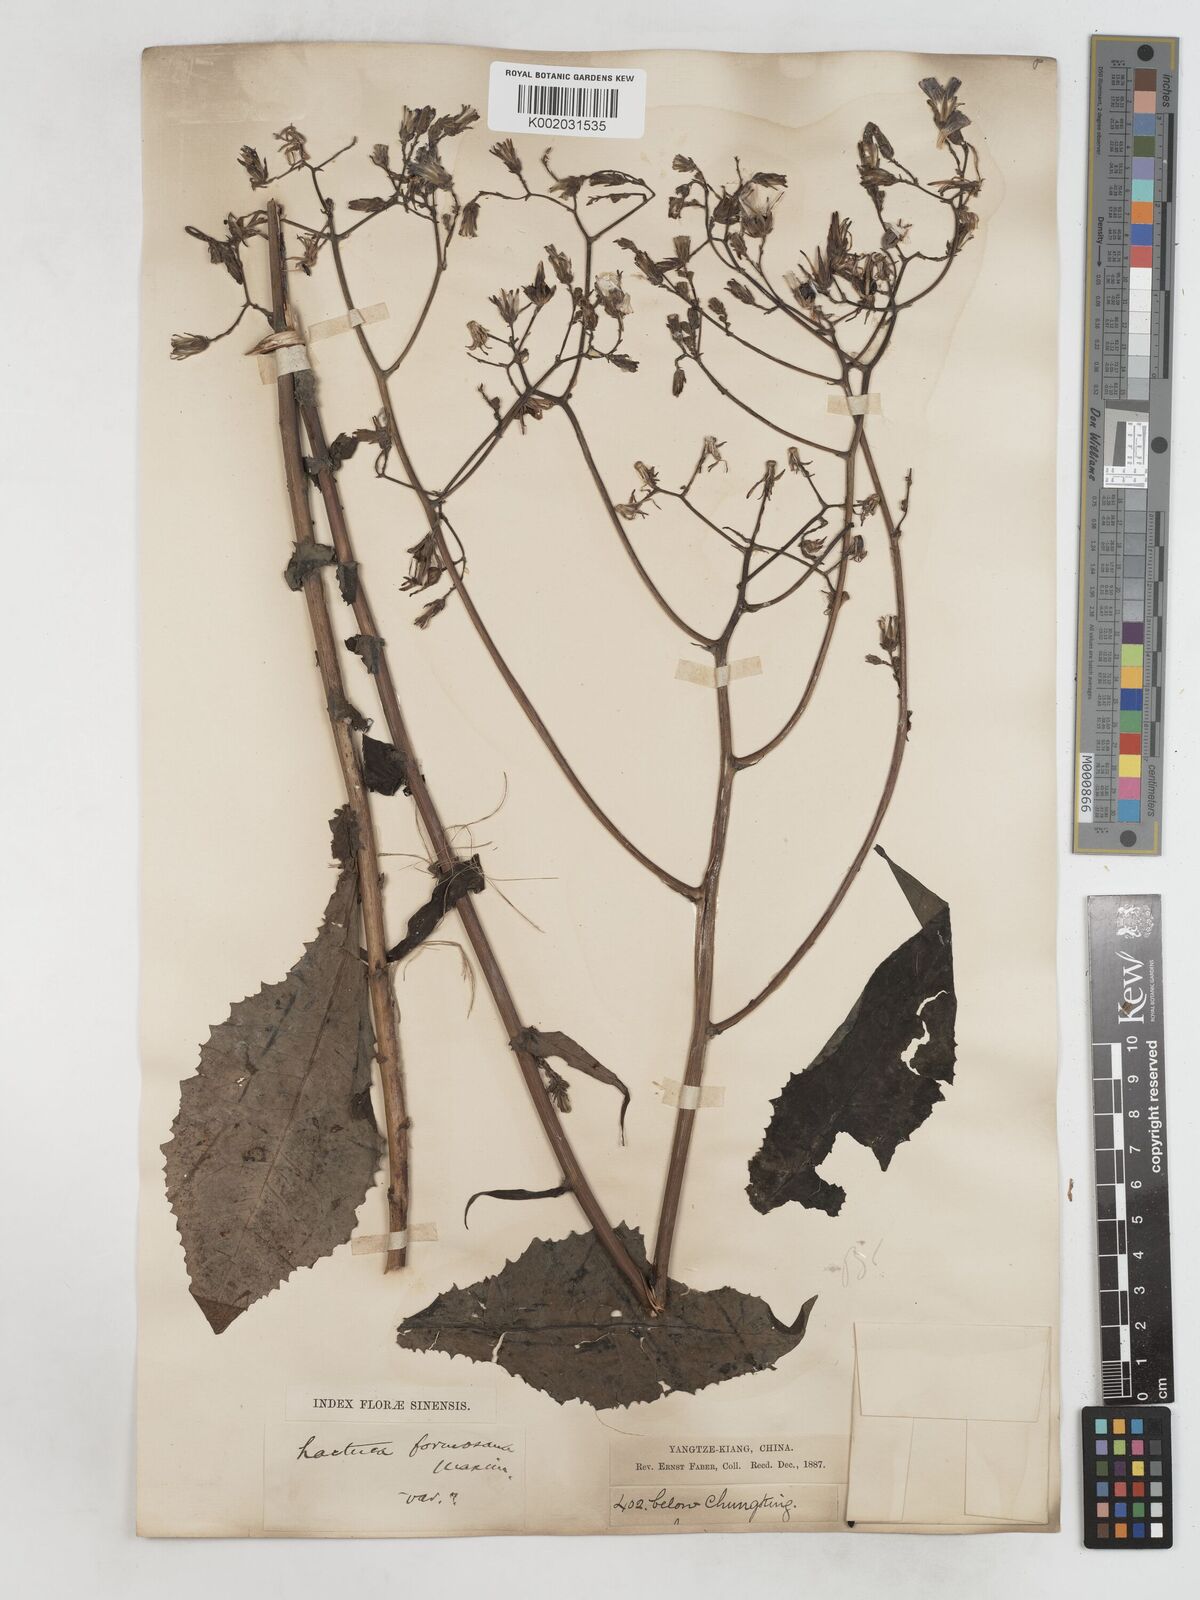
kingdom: Plantae
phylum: Tracheophyta
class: Magnoliopsida
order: Asterales
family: Asteraceae
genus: Lactuca
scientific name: Lactuca formosana
